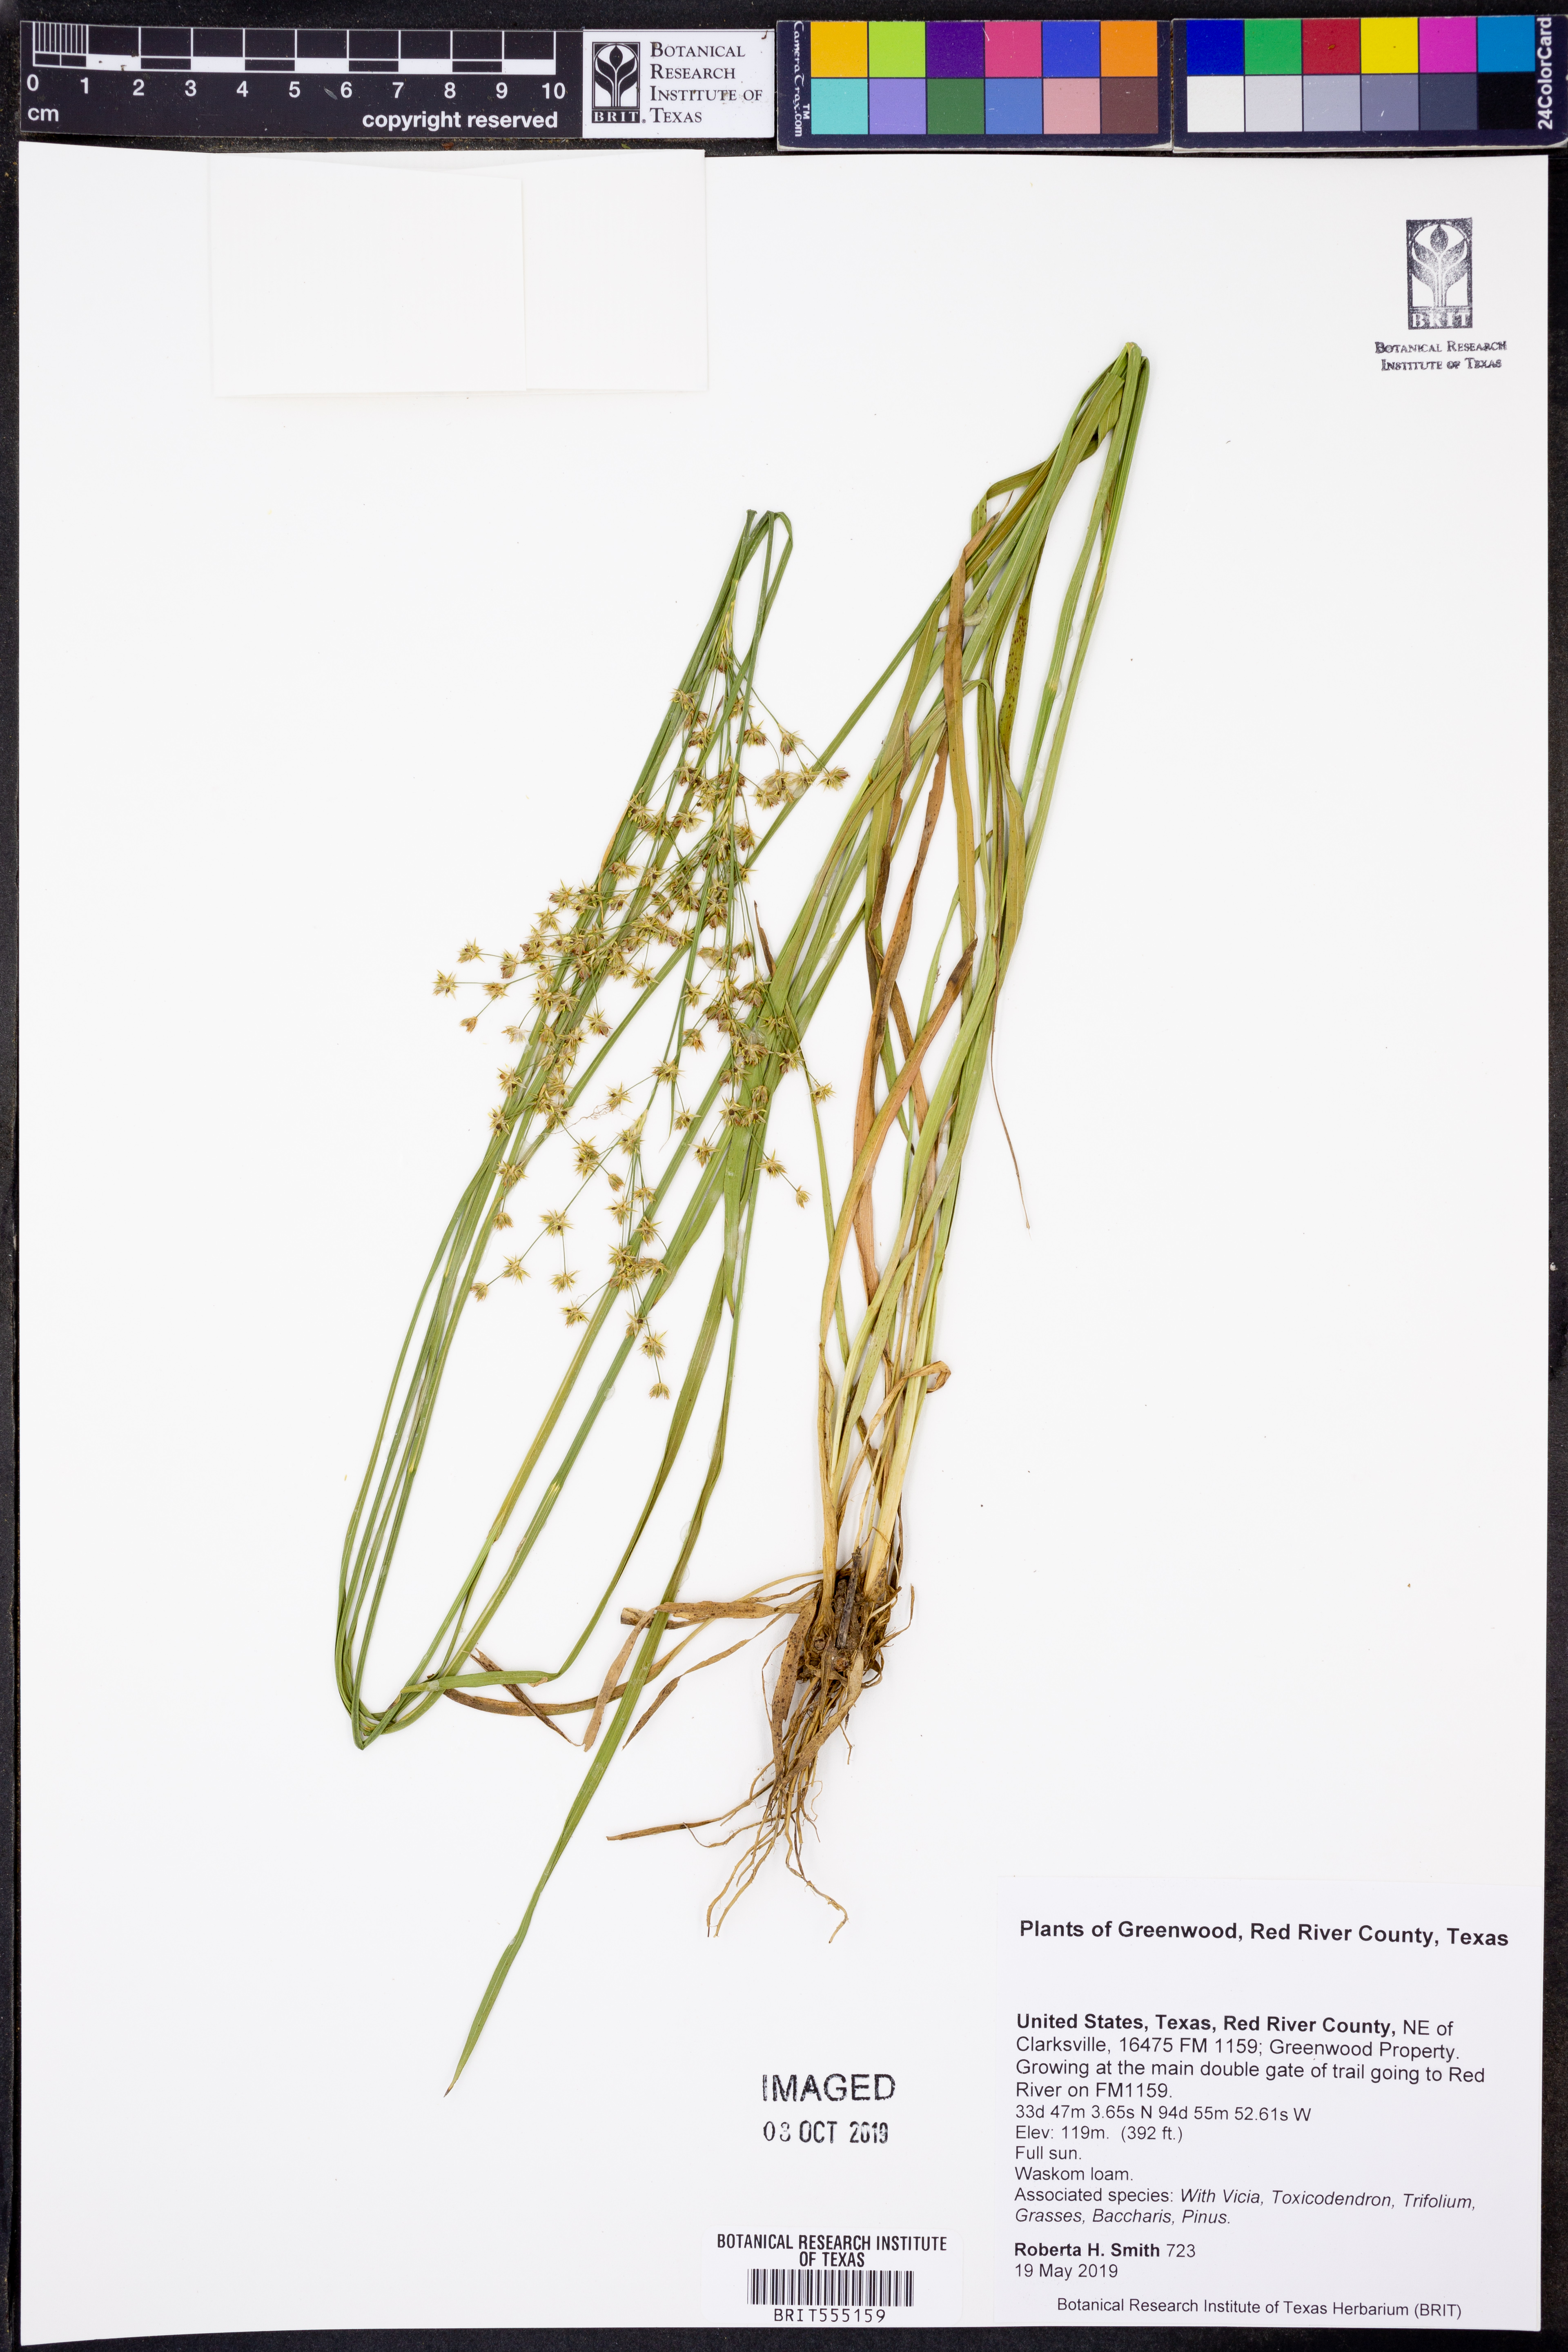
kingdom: Plantae
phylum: Tracheophyta
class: Liliopsida
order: Poales
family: Juncaceae
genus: Juncus
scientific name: Juncus diffusissimus
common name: Slimpod rush
